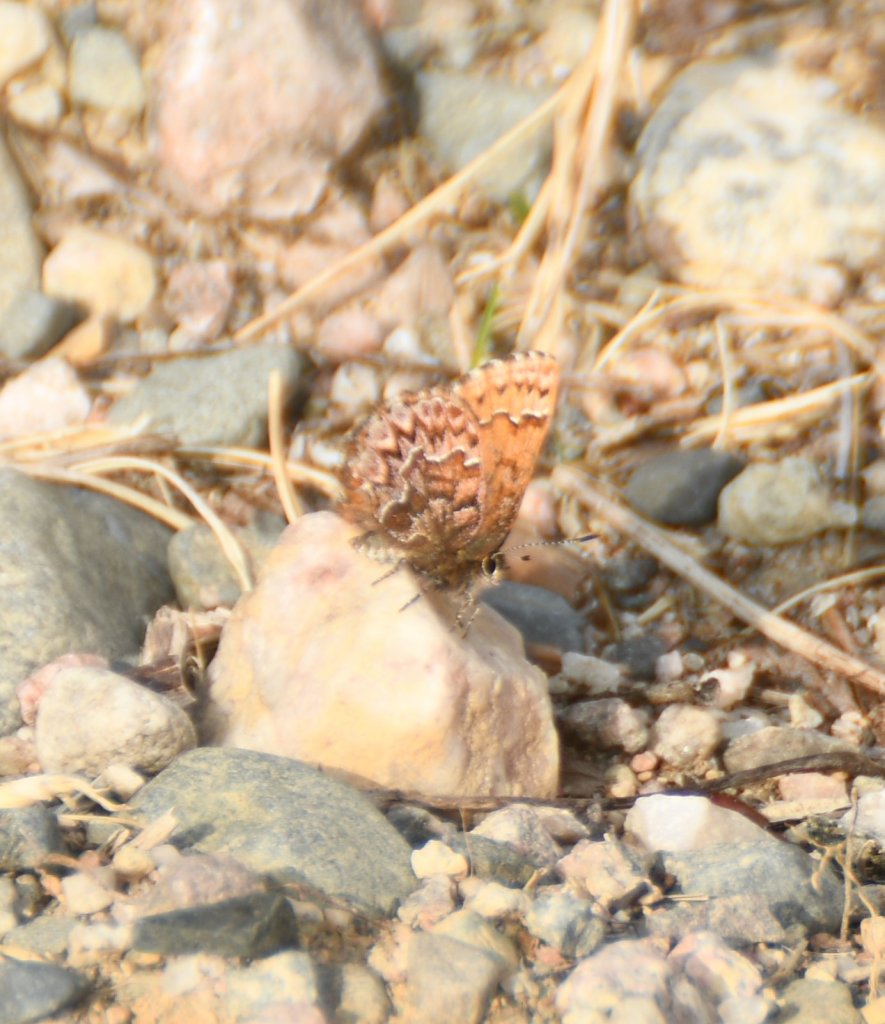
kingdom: Animalia
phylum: Arthropoda
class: Insecta
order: Lepidoptera
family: Lycaenidae
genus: Incisalia
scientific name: Incisalia eryphon
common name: Western Pine Elfin
